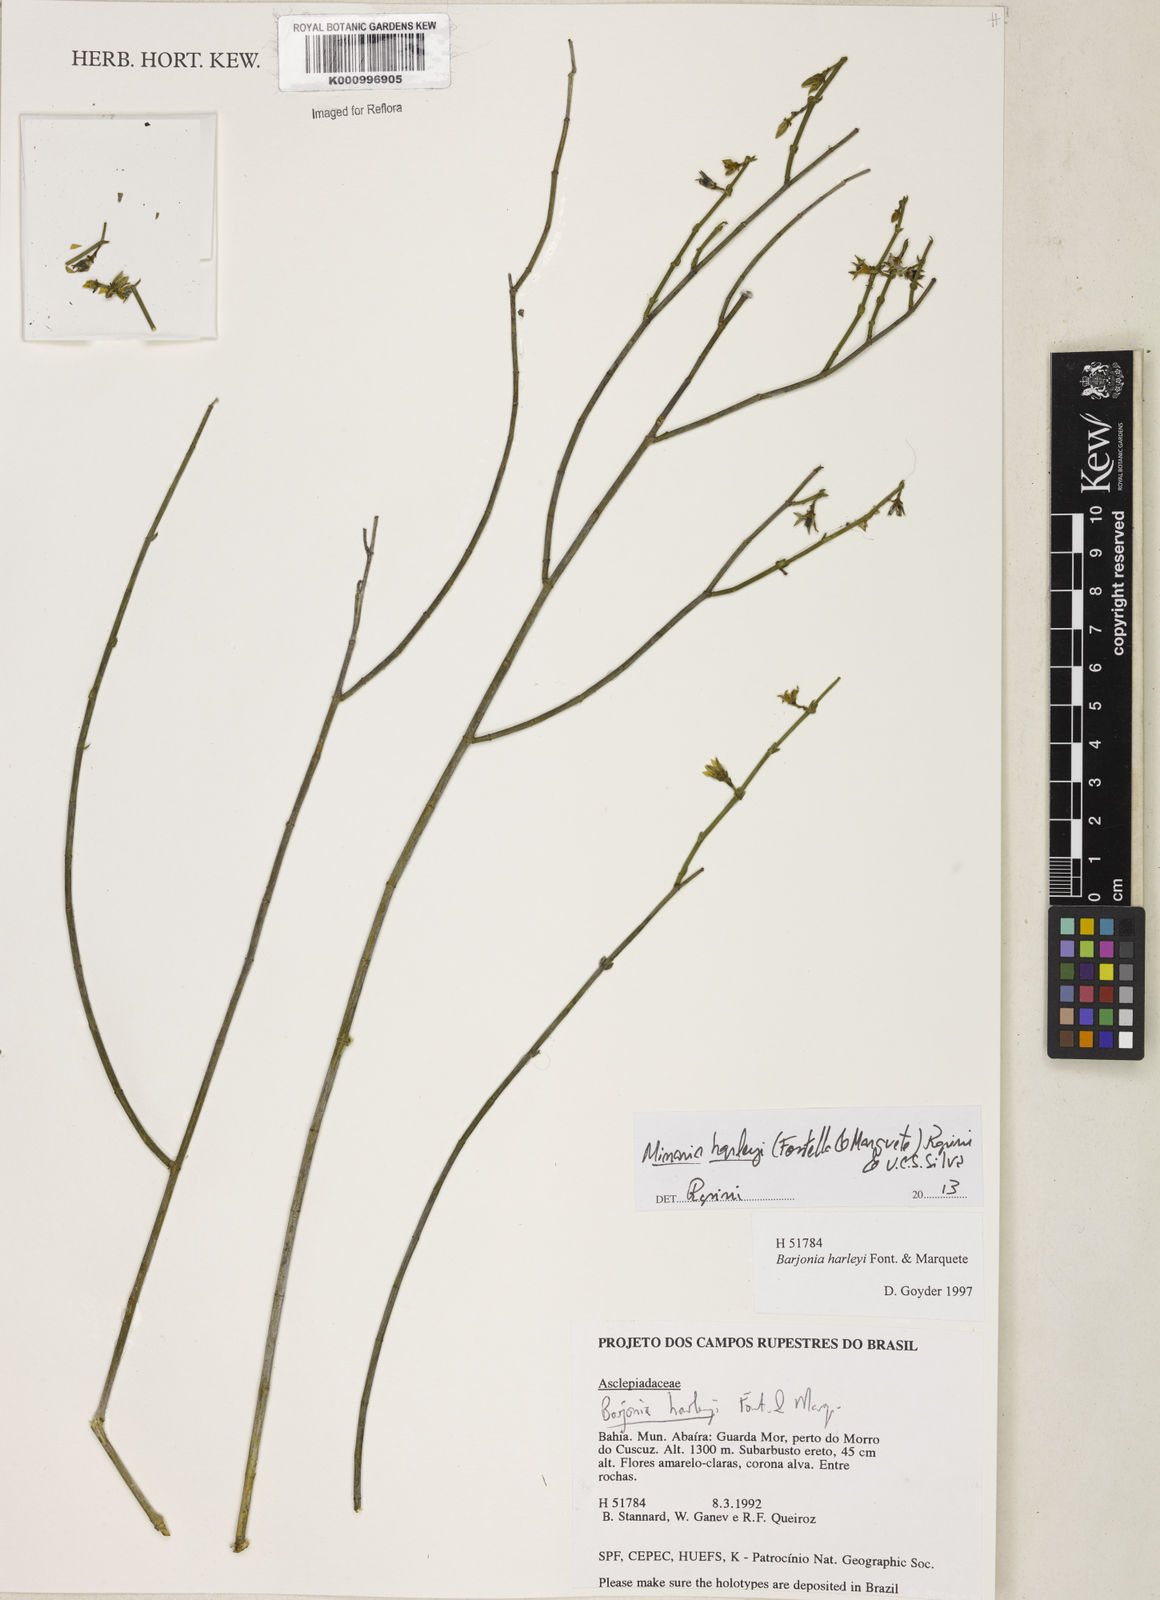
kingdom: Plantae
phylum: Tracheophyta
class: Magnoliopsida
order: Gentianales
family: Apocynaceae
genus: Minaria
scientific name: Minaria cordata
